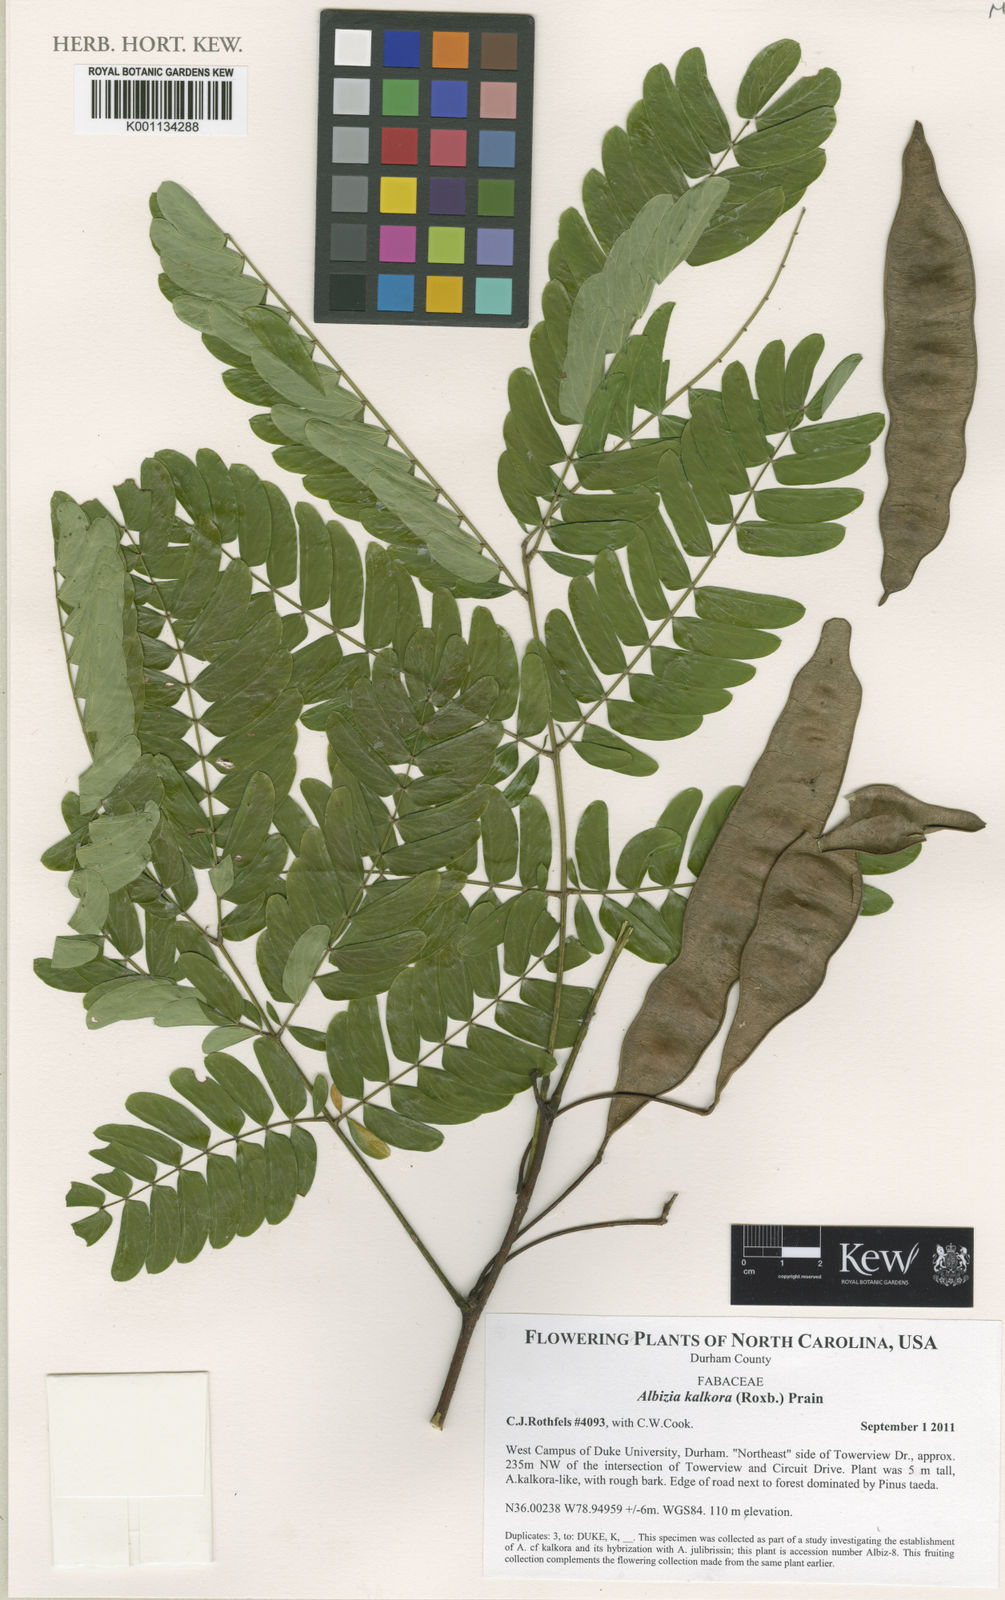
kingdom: Plantae
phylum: Tracheophyta
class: Magnoliopsida
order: Fabales
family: Fabaceae
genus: Albizia
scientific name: Albizia kalkora
